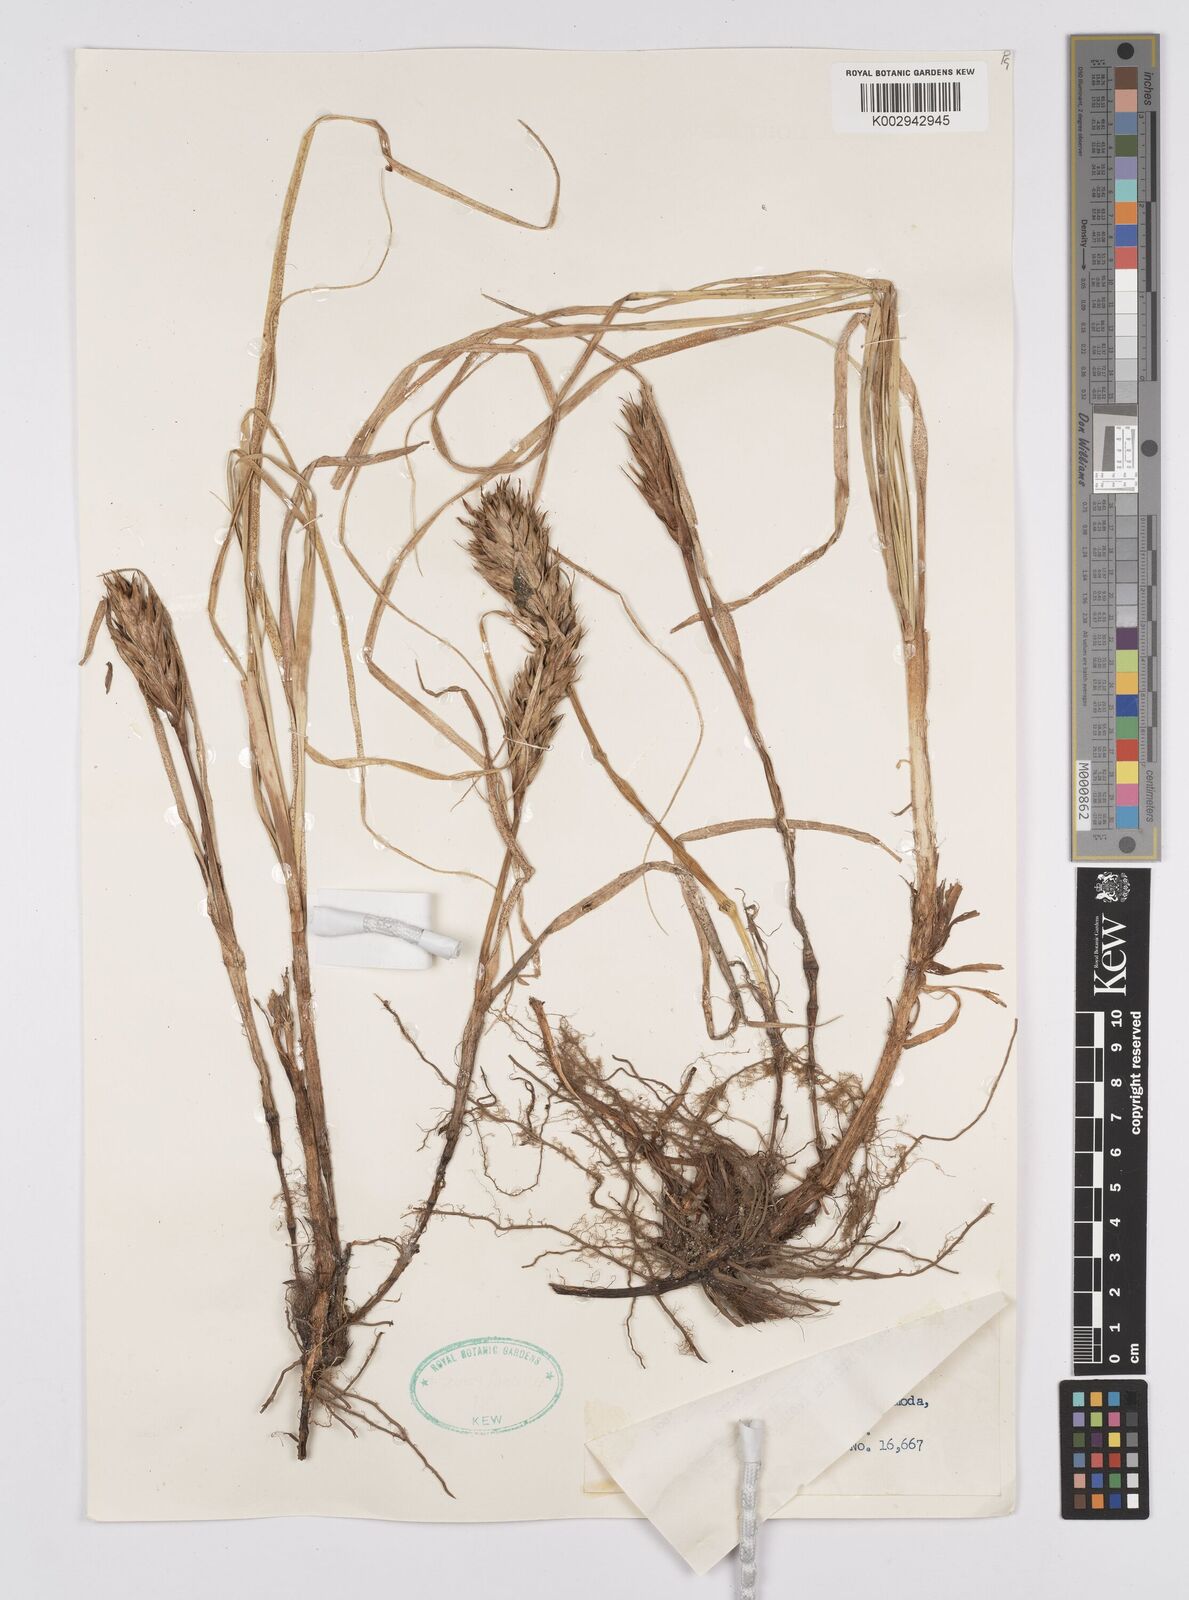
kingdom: Plantae
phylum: Tracheophyta
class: Liliopsida
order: Poales
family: Cyperaceae
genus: Carex
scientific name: Carex kobomugi
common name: Japanese sedge
